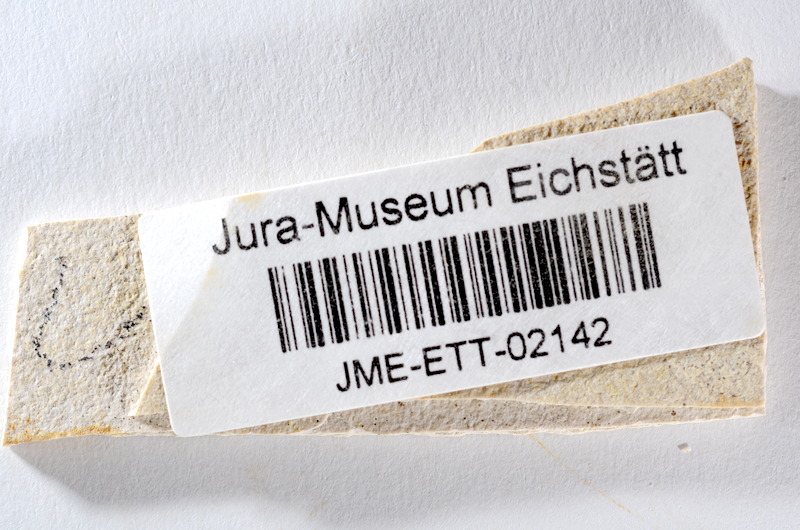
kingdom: Animalia
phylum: Chordata
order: Salmoniformes
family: Orthogonikleithridae
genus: Orthogonikleithrus
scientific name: Orthogonikleithrus hoelli
